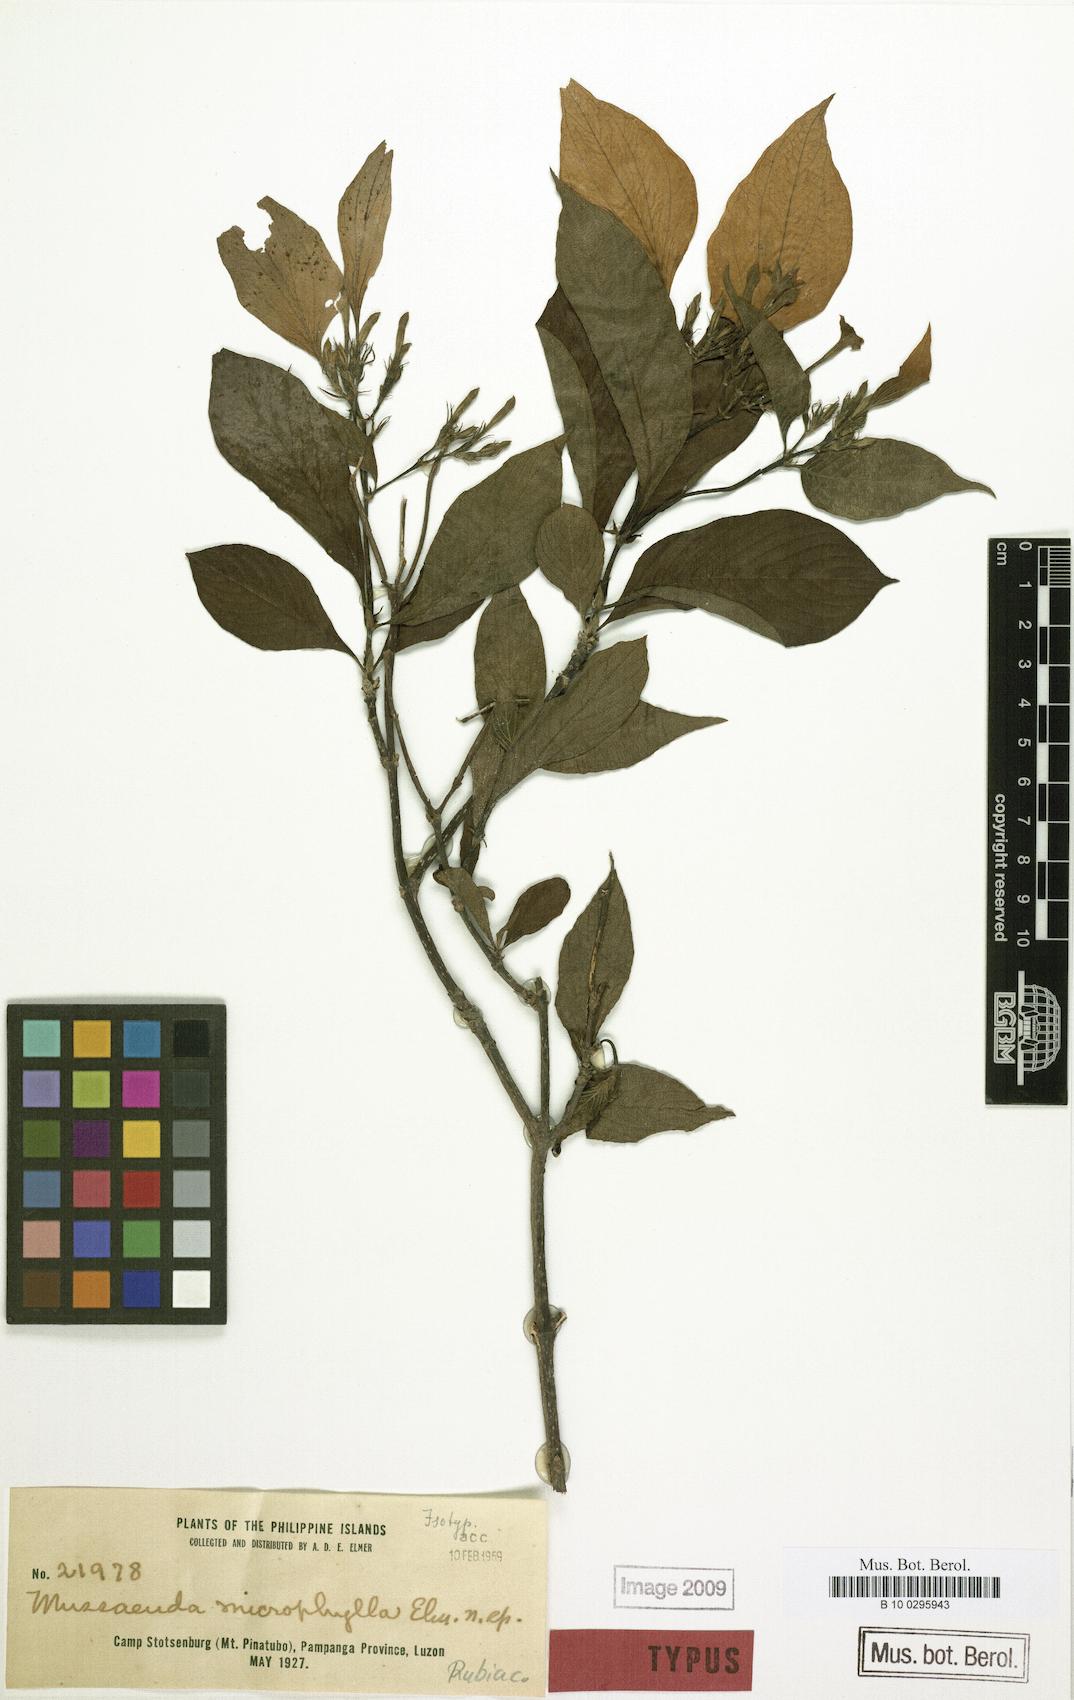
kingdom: Plantae
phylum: Tracheophyta
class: Magnoliopsida
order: Gentianales
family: Rubiaceae
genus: Mussaenda
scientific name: Mussaenda macrophylla
